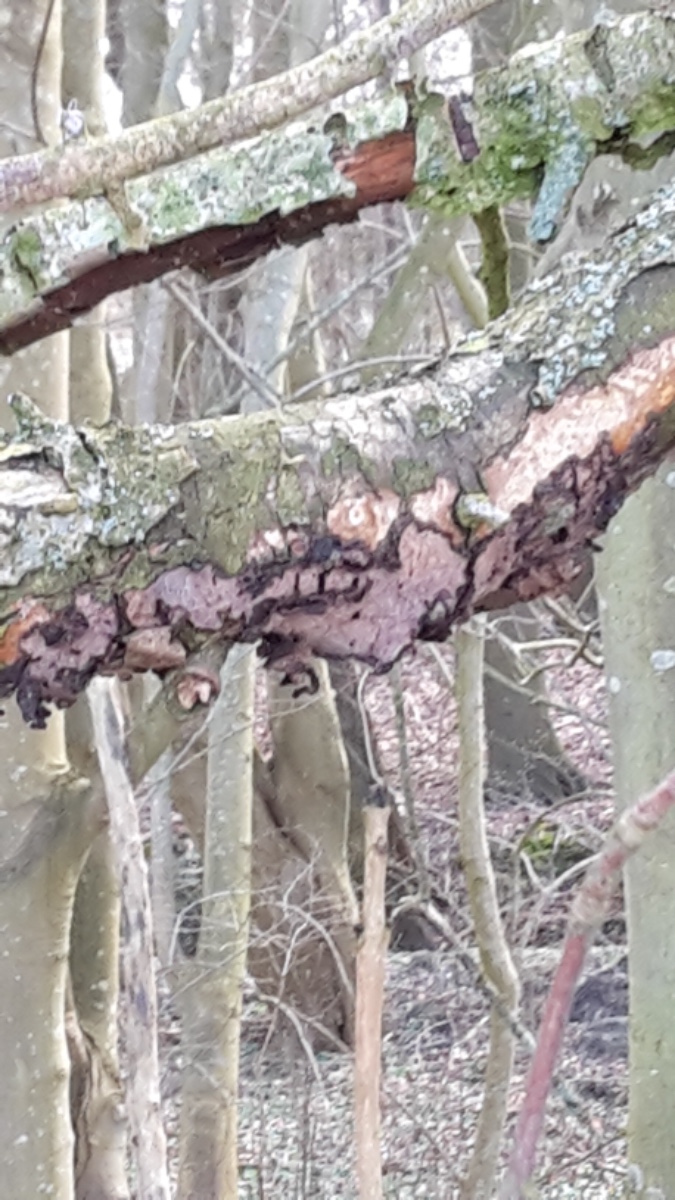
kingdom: Fungi
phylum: Basidiomycota
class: Agaricomycetes
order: Russulales
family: Peniophoraceae
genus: Peniophora
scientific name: Peniophora quercina
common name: ege-voksskind
